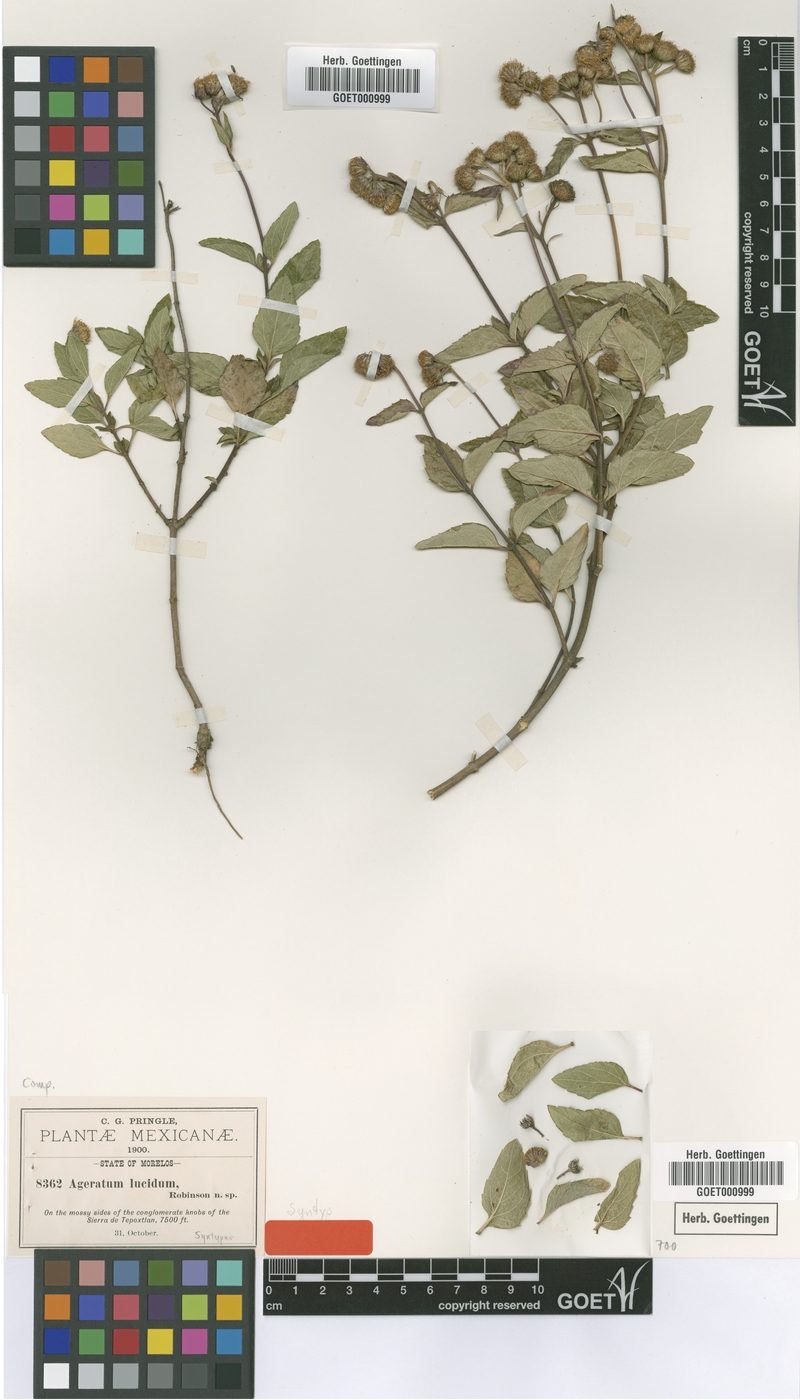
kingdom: Plantae
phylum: Tracheophyta
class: Magnoliopsida
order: Asterales
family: Asteraceae
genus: Ageratum
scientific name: Ageratum corymbosum
